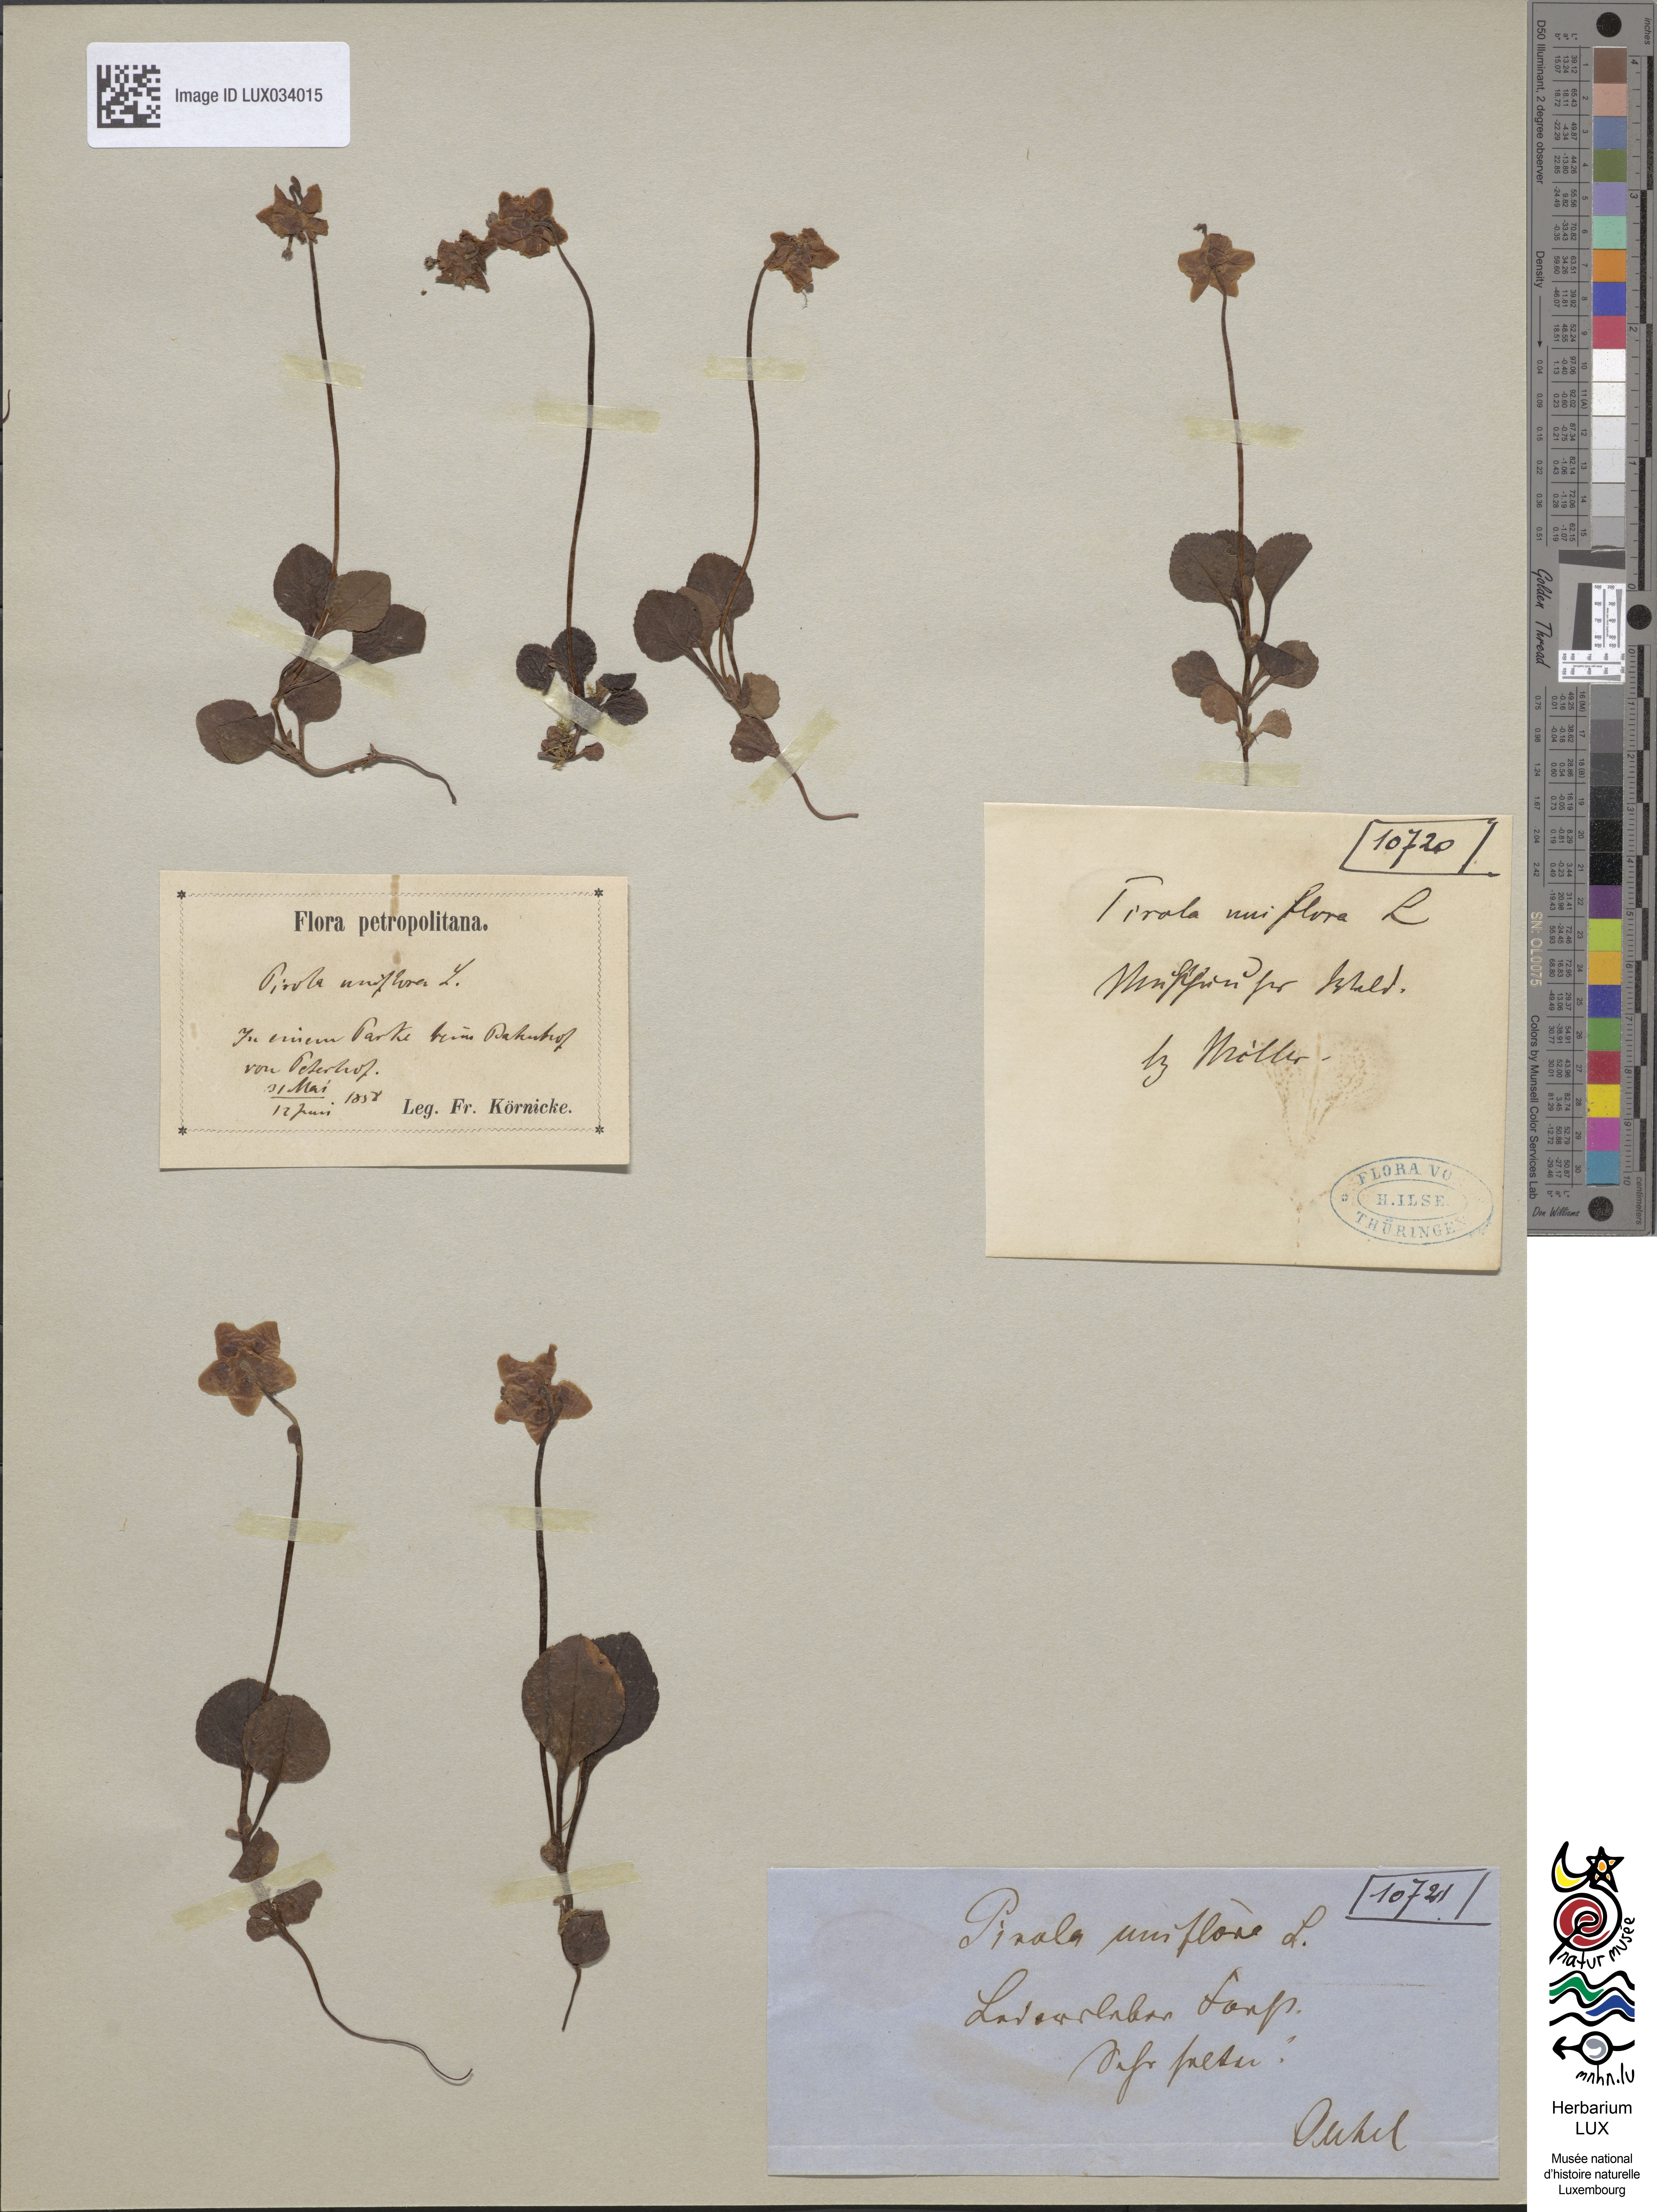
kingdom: Plantae
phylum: Tracheophyta
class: Magnoliopsida
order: Ericales
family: Ericaceae
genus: Moneses
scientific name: Moneses uniflora
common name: One-flowered wintergreen
